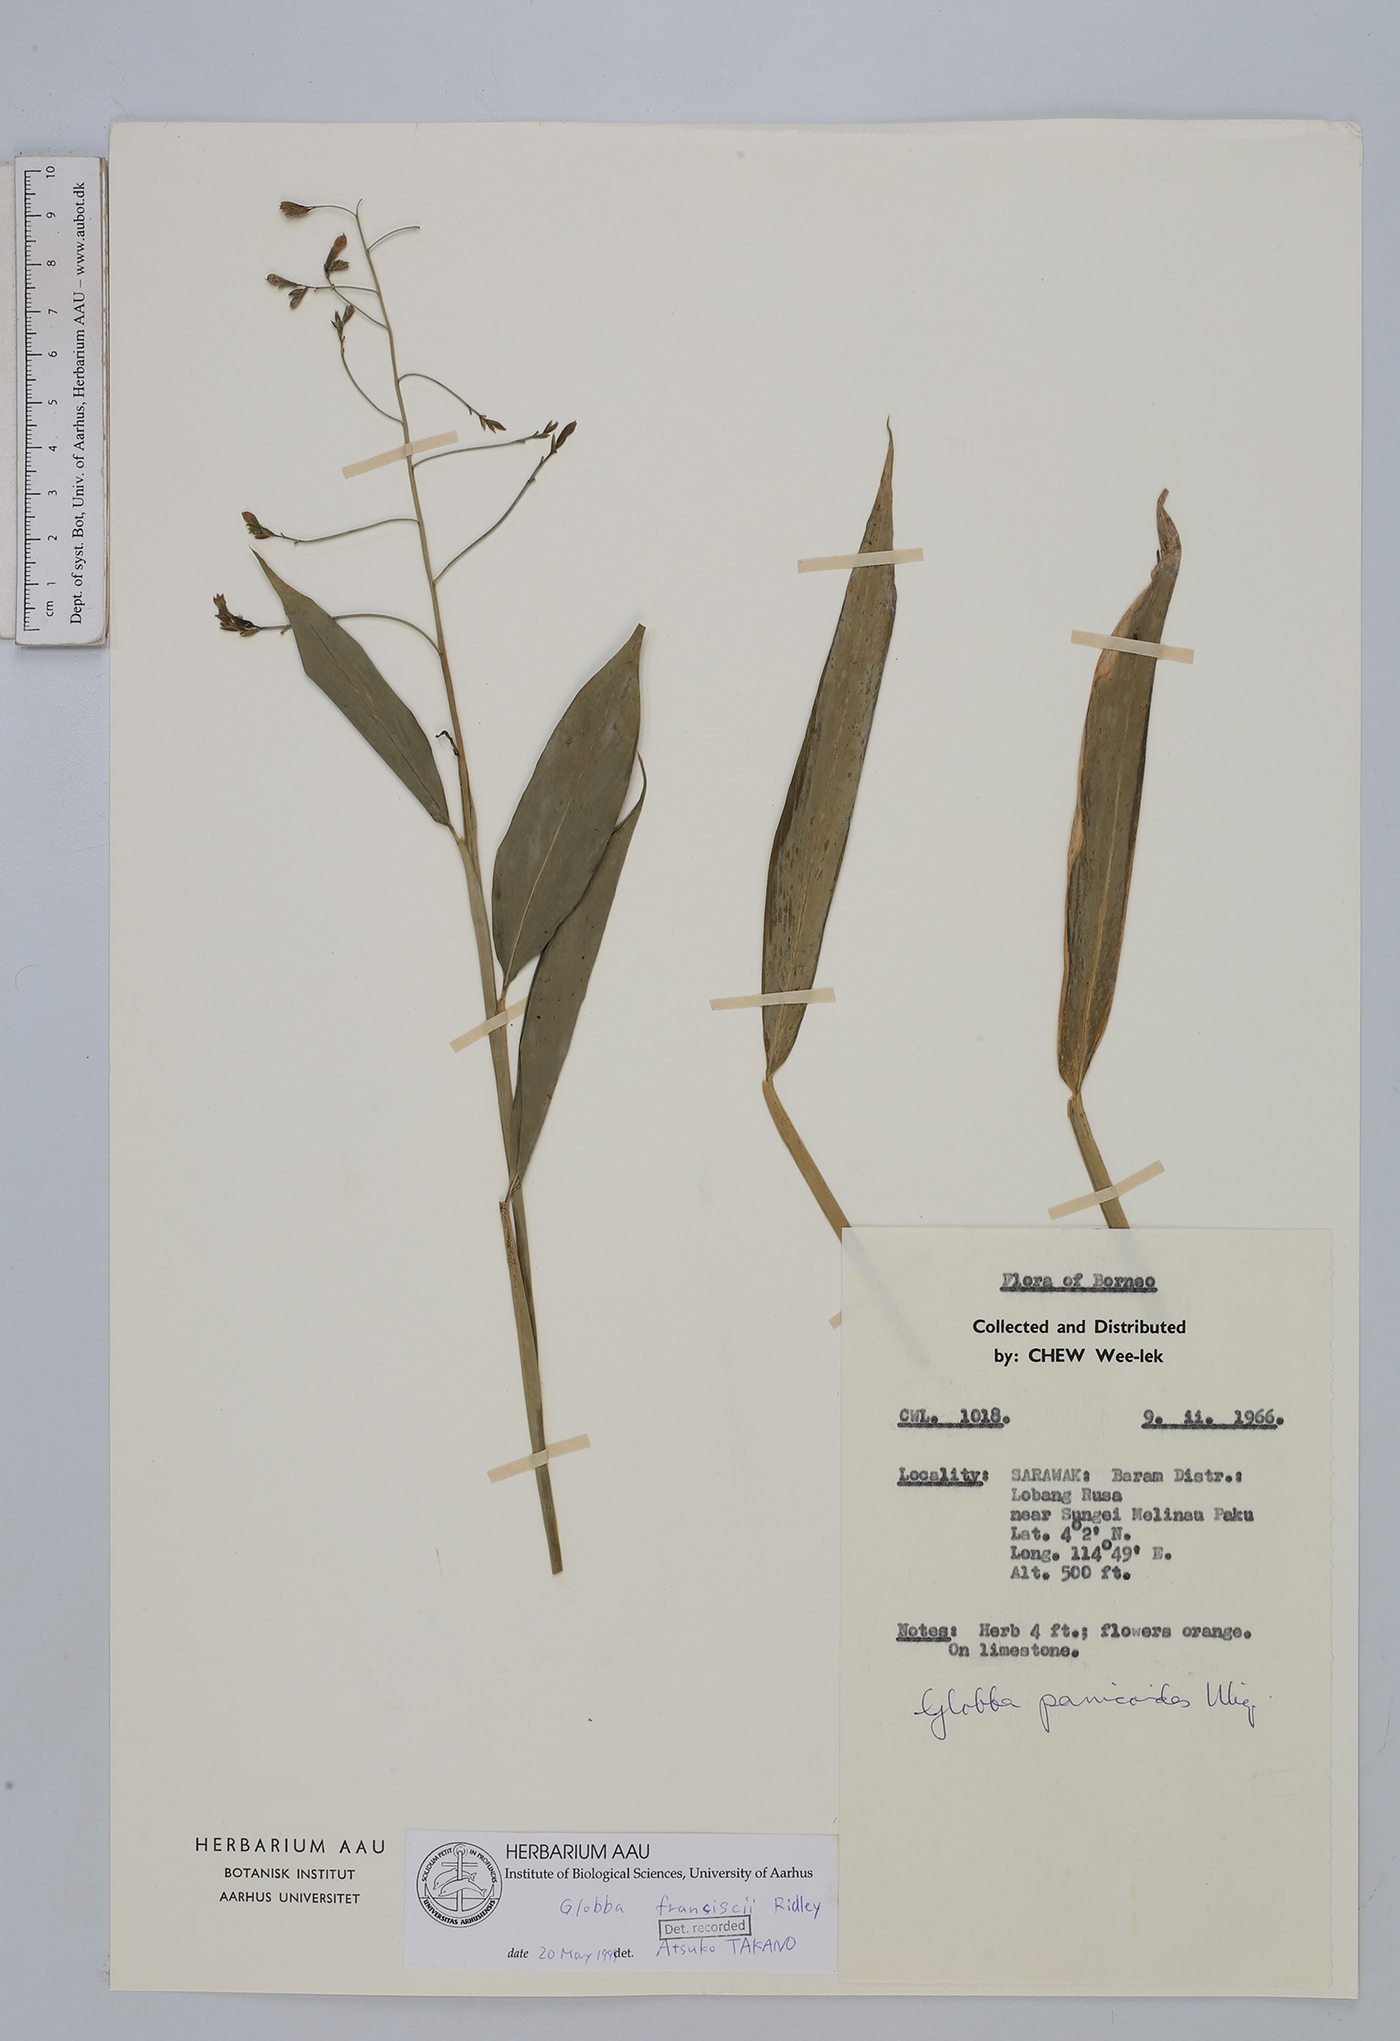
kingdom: Plantae
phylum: Tracheophyta
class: Liliopsida
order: Zingiberales
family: Zingiberaceae
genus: Globba
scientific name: Globba francisci
